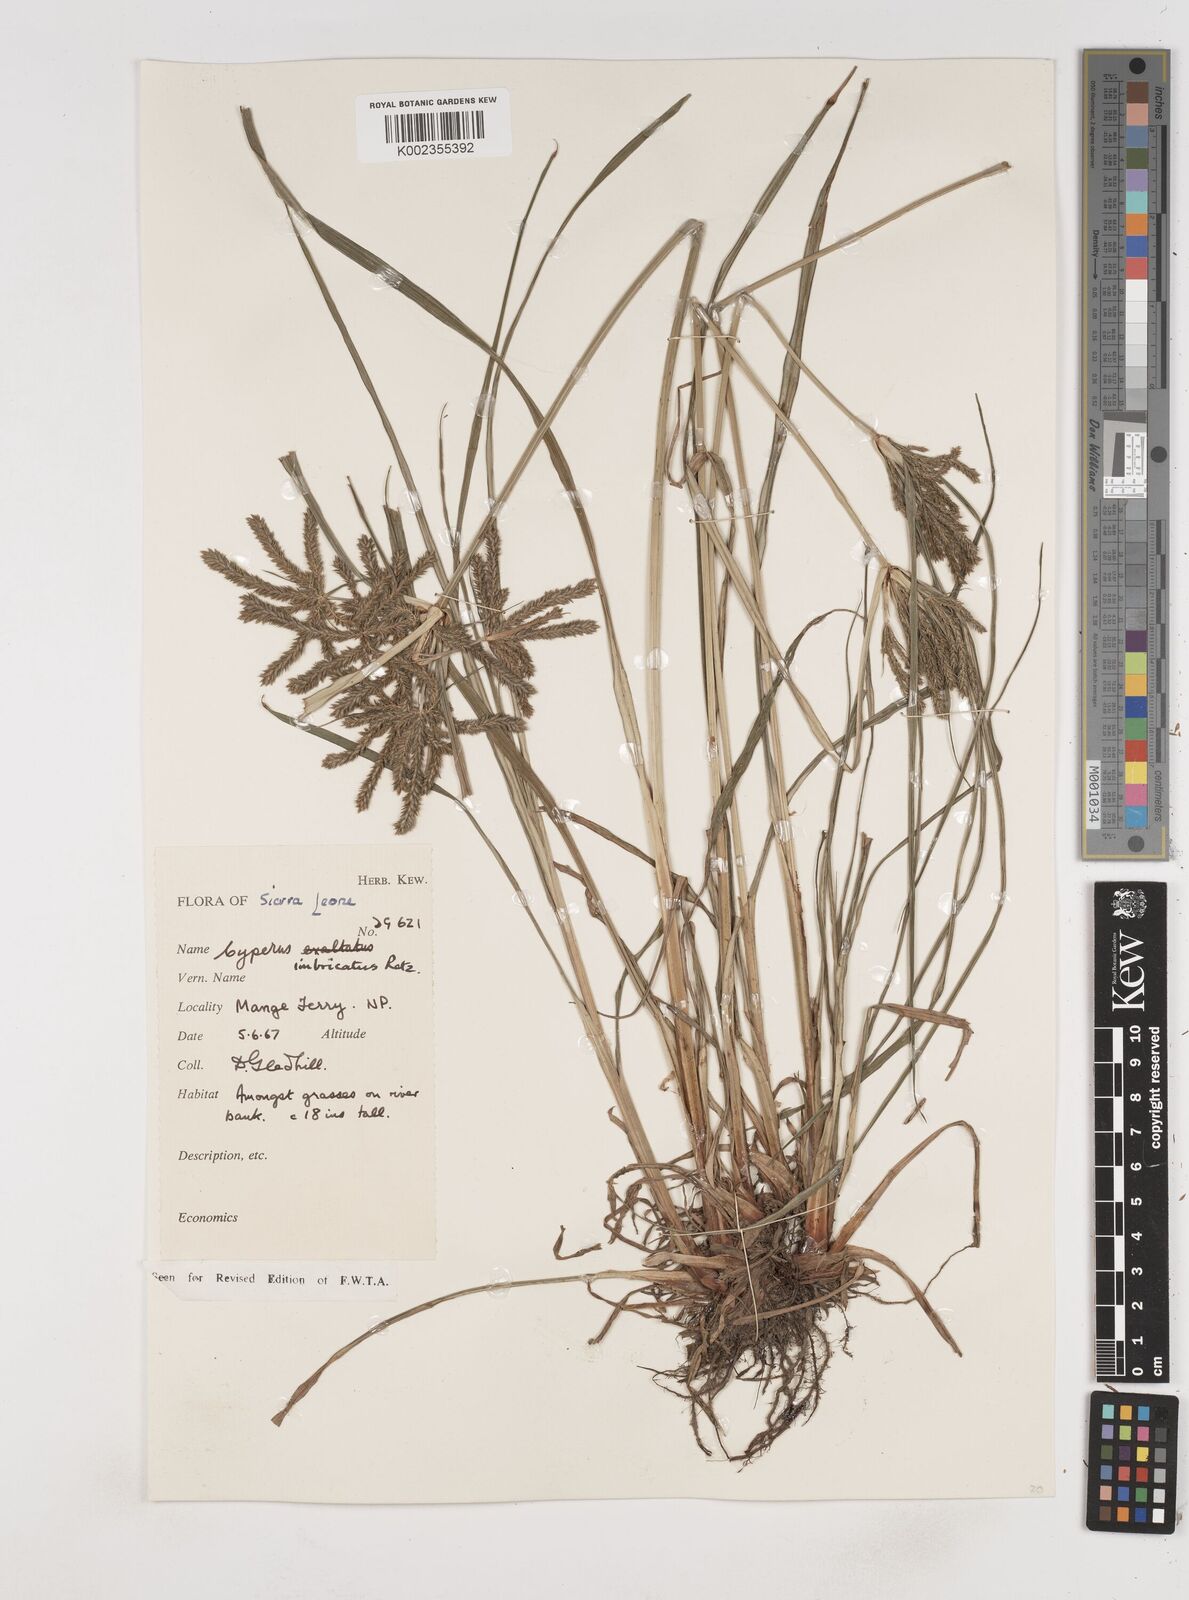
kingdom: Plantae
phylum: Tracheophyta
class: Liliopsida
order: Poales
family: Cyperaceae
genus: Cyperus
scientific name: Cyperus imbricatus
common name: Shingle flatsedge
